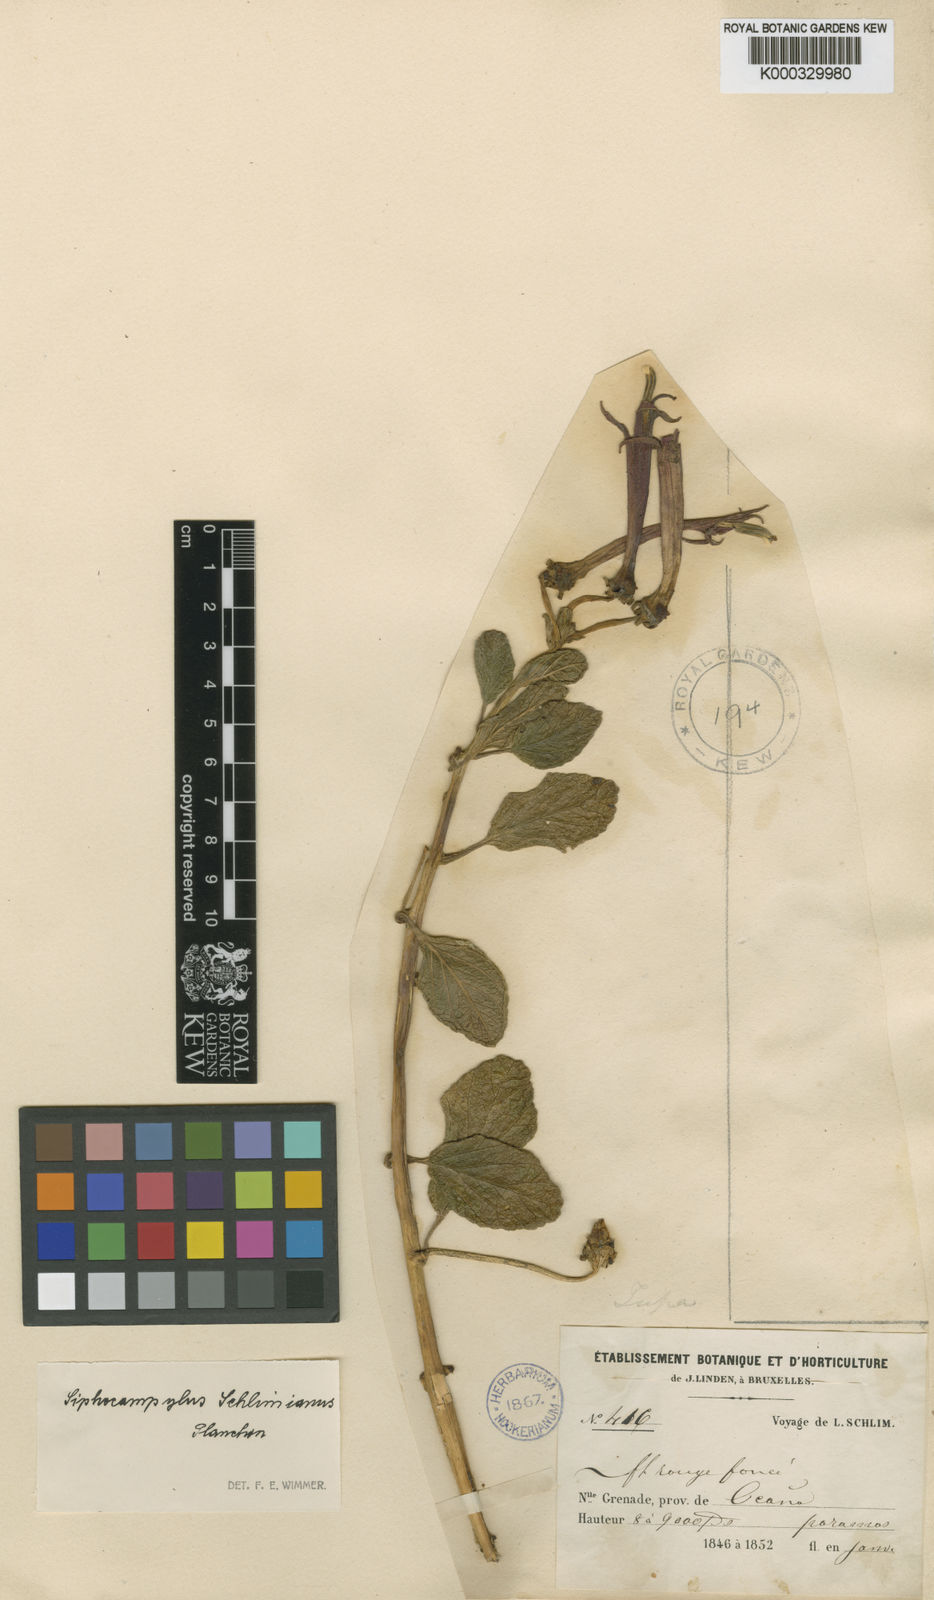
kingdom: Plantae
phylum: Tracheophyta
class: Magnoliopsida
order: Asterales
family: Campanulaceae
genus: Siphocampylus
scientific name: Siphocampylus schlimianus
